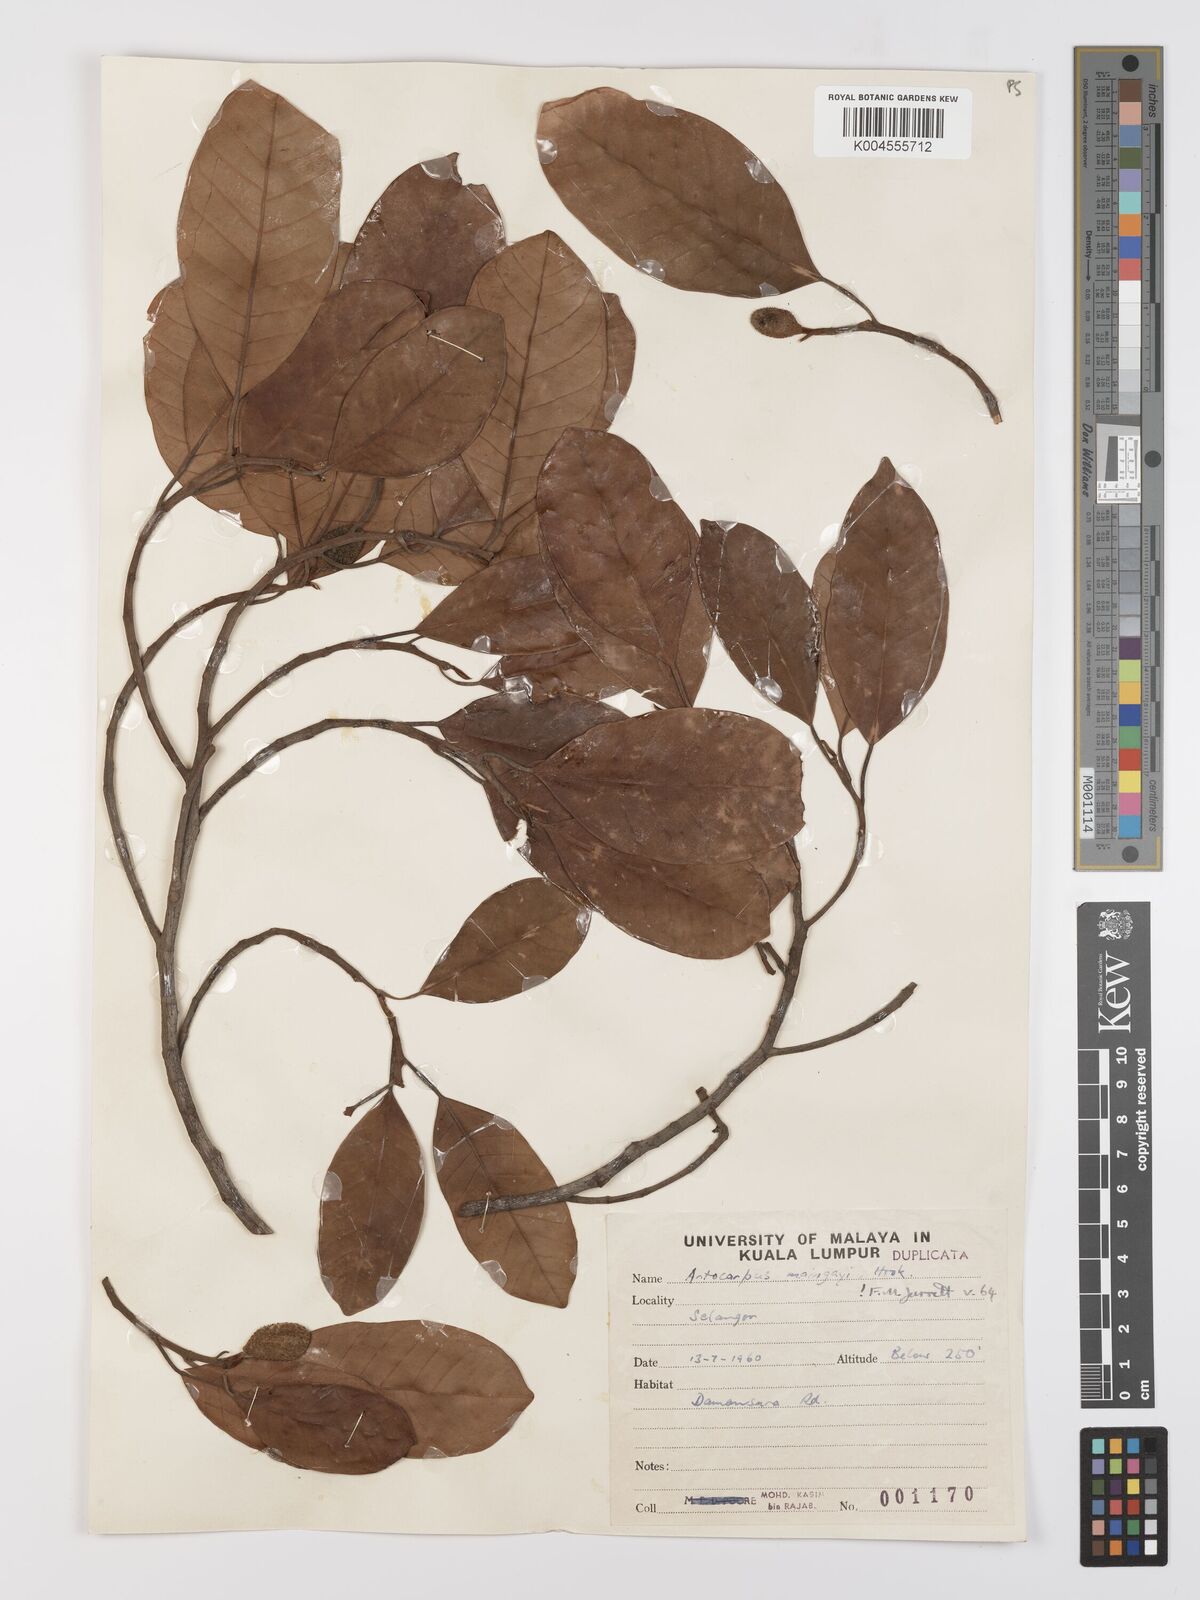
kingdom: Plantae
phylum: Tracheophyta
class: Magnoliopsida
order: Rosales
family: Moraceae
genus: Artocarpus
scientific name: Artocarpus kemando
